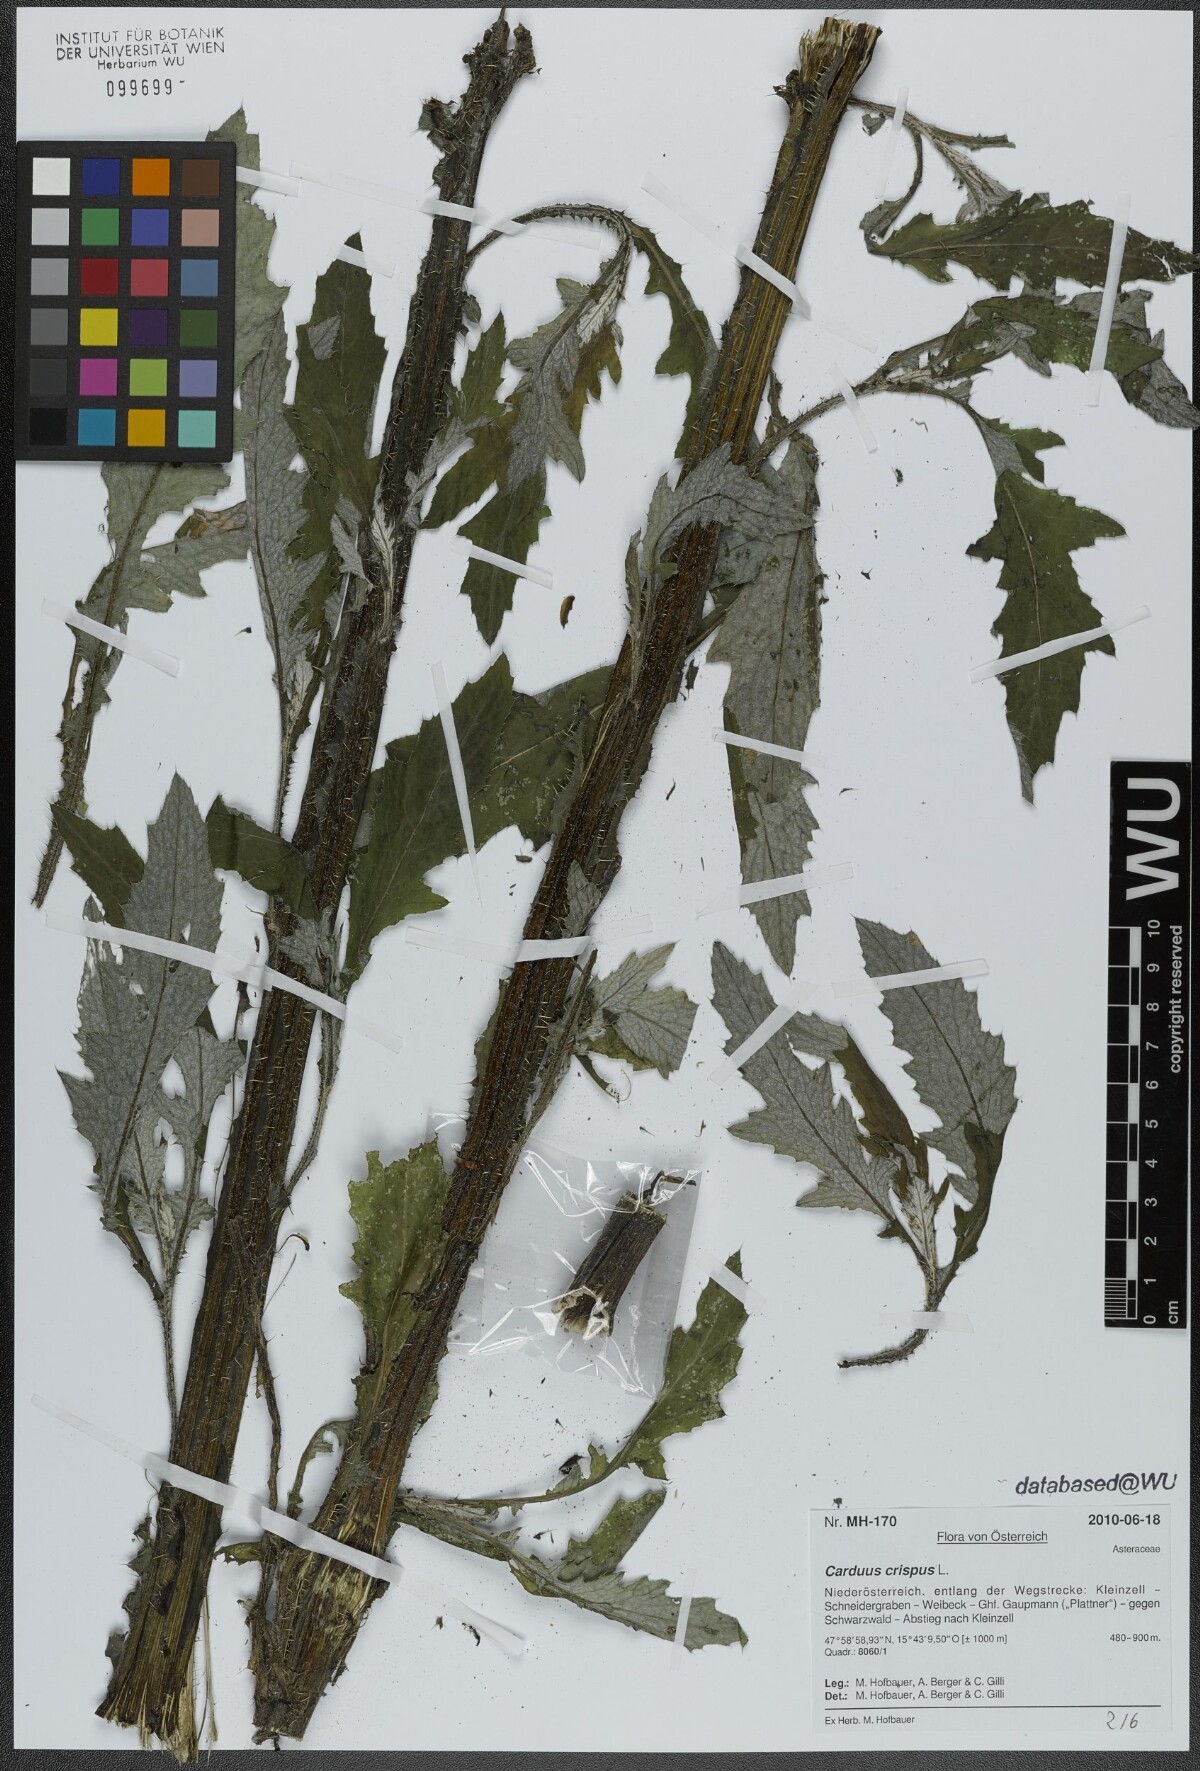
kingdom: Plantae
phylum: Tracheophyta
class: Magnoliopsida
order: Asterales
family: Asteraceae
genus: Carduus
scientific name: Carduus crispus
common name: Welted thistle
